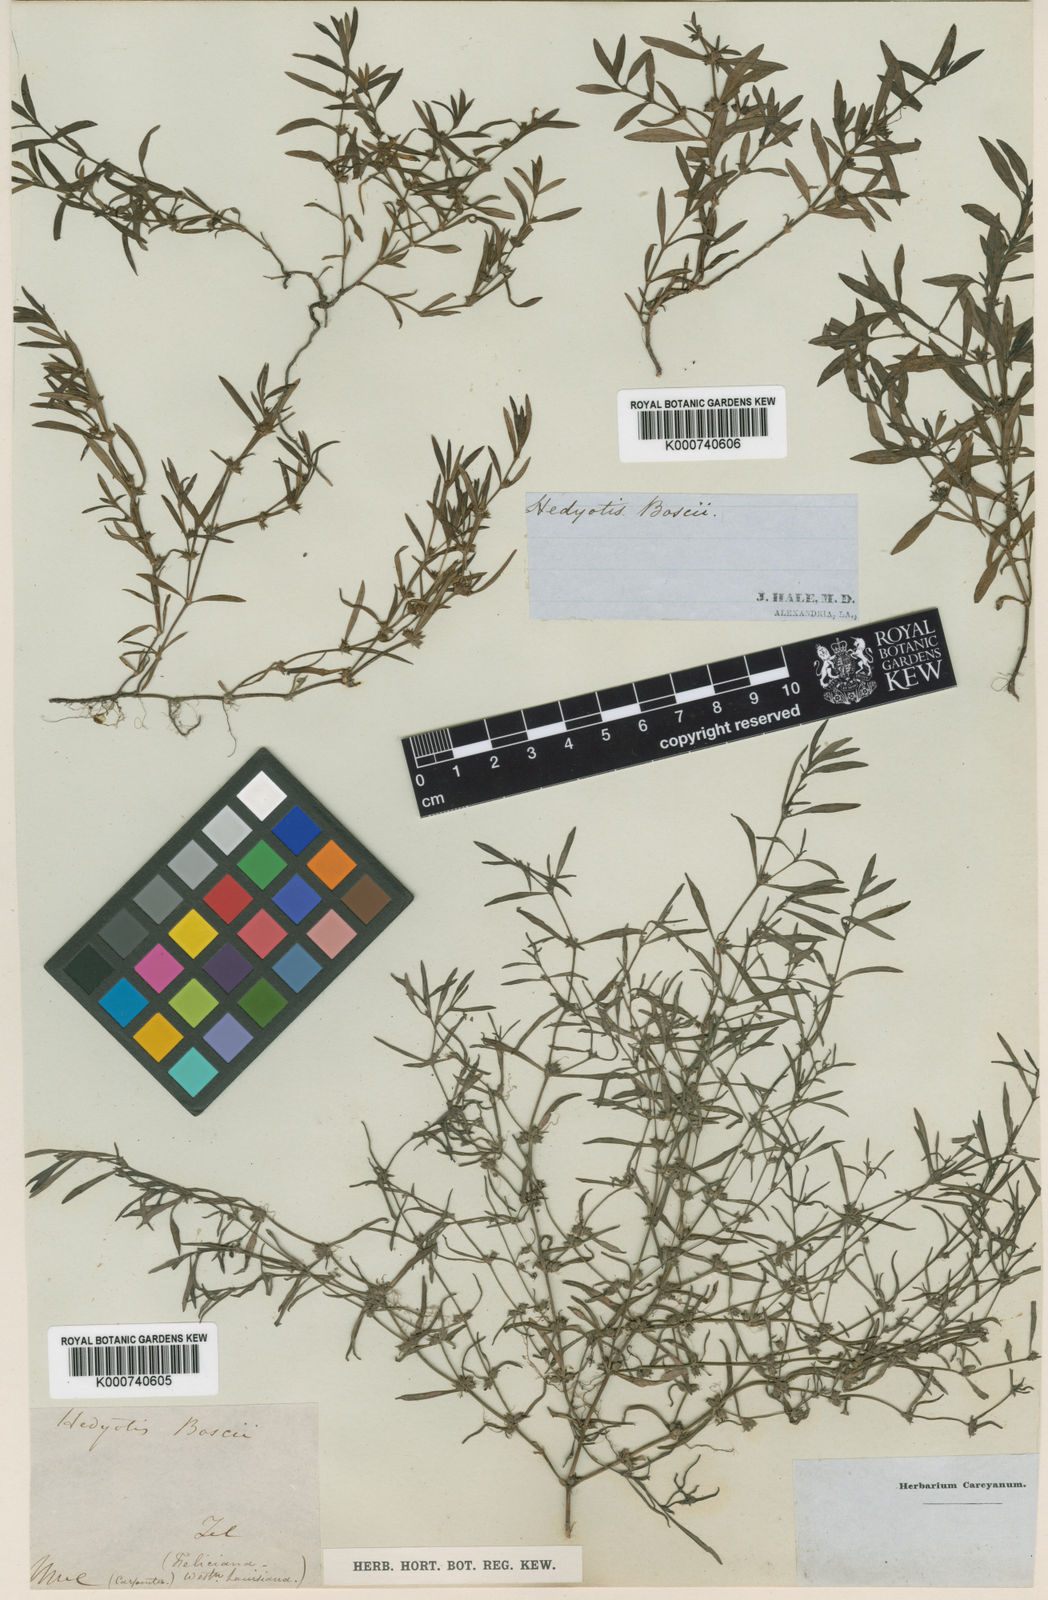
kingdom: Plantae
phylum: Tracheophyta
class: Magnoliopsida
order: Gentianales
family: Rubiaceae
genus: Oldenlandia
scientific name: Oldenlandia boscii
